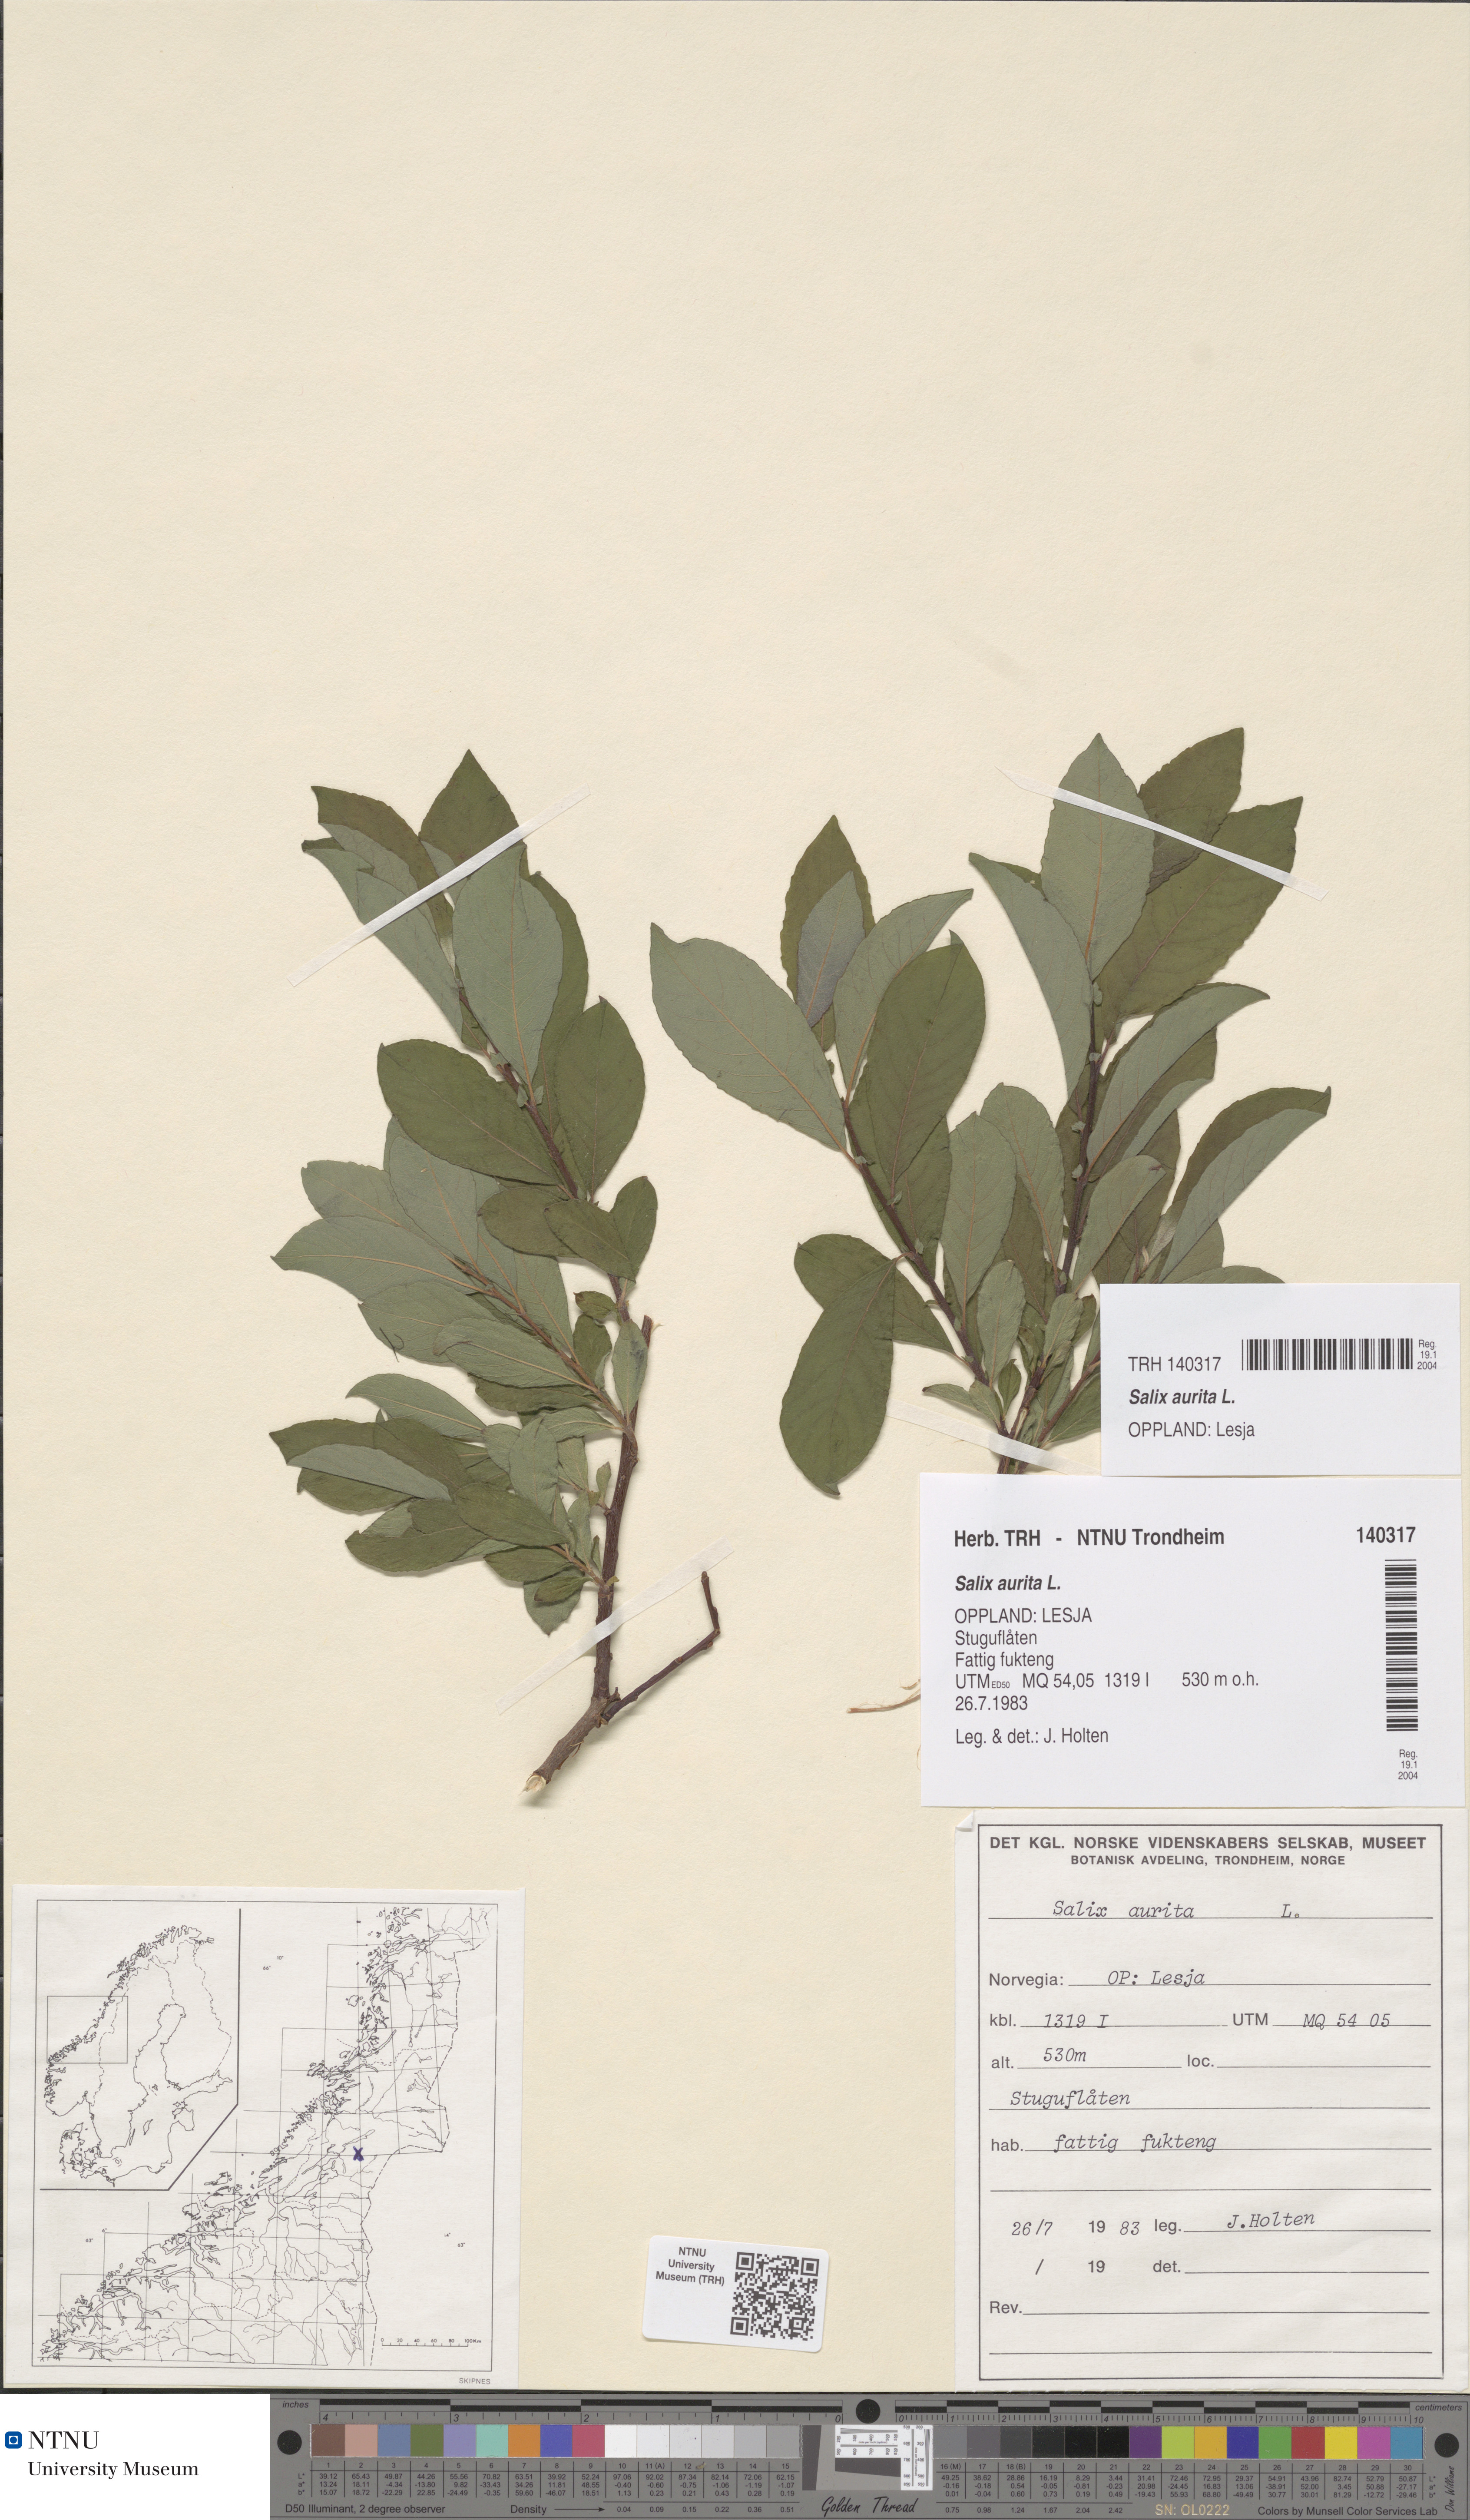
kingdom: Plantae
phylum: Tracheophyta
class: Magnoliopsida
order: Malpighiales
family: Salicaceae
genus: Salix
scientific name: Salix aurita
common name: Eared willow
